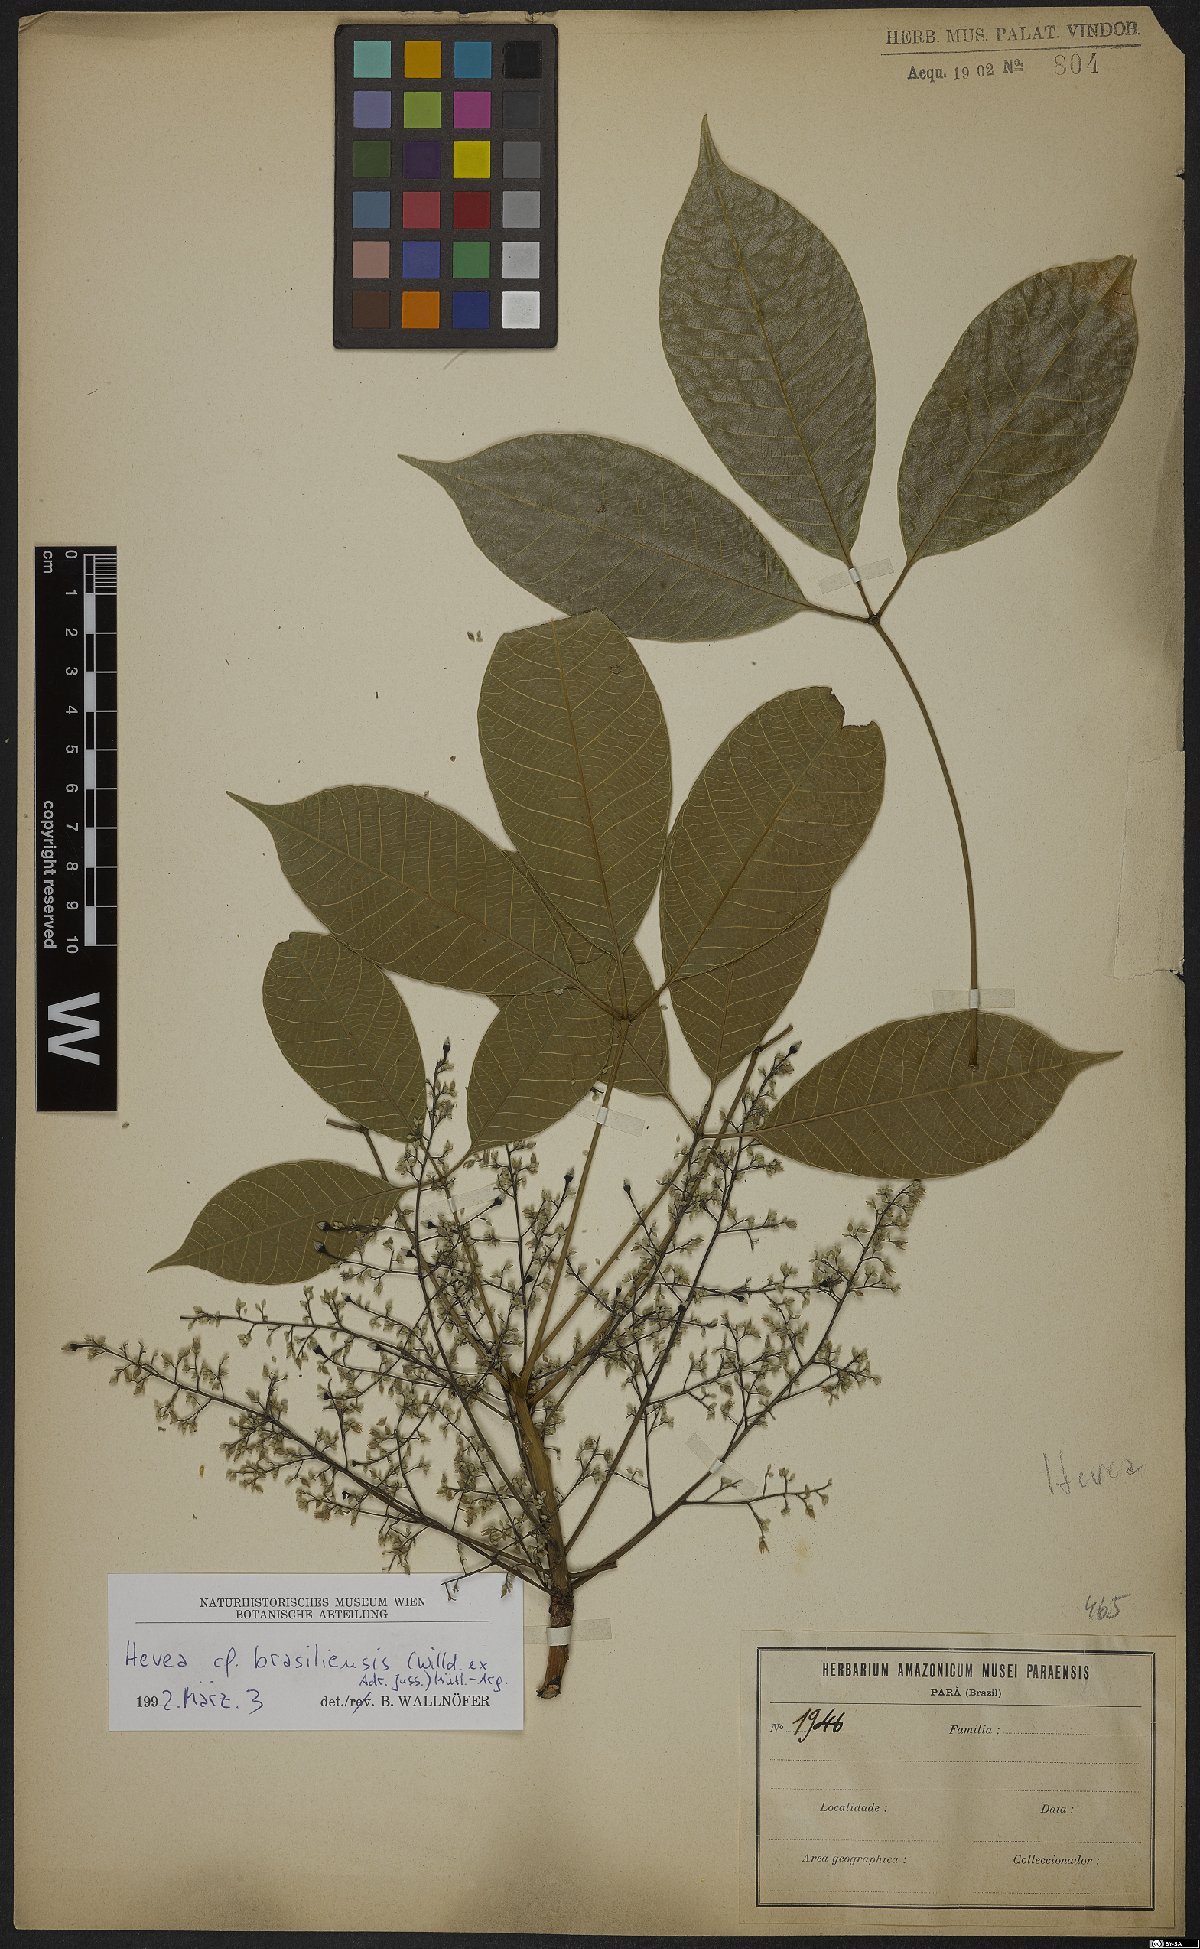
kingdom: Plantae
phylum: Tracheophyta
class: Magnoliopsida
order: Malpighiales
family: Euphorbiaceae
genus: Hevea
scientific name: Hevea brasiliensis
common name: Natural rubber
